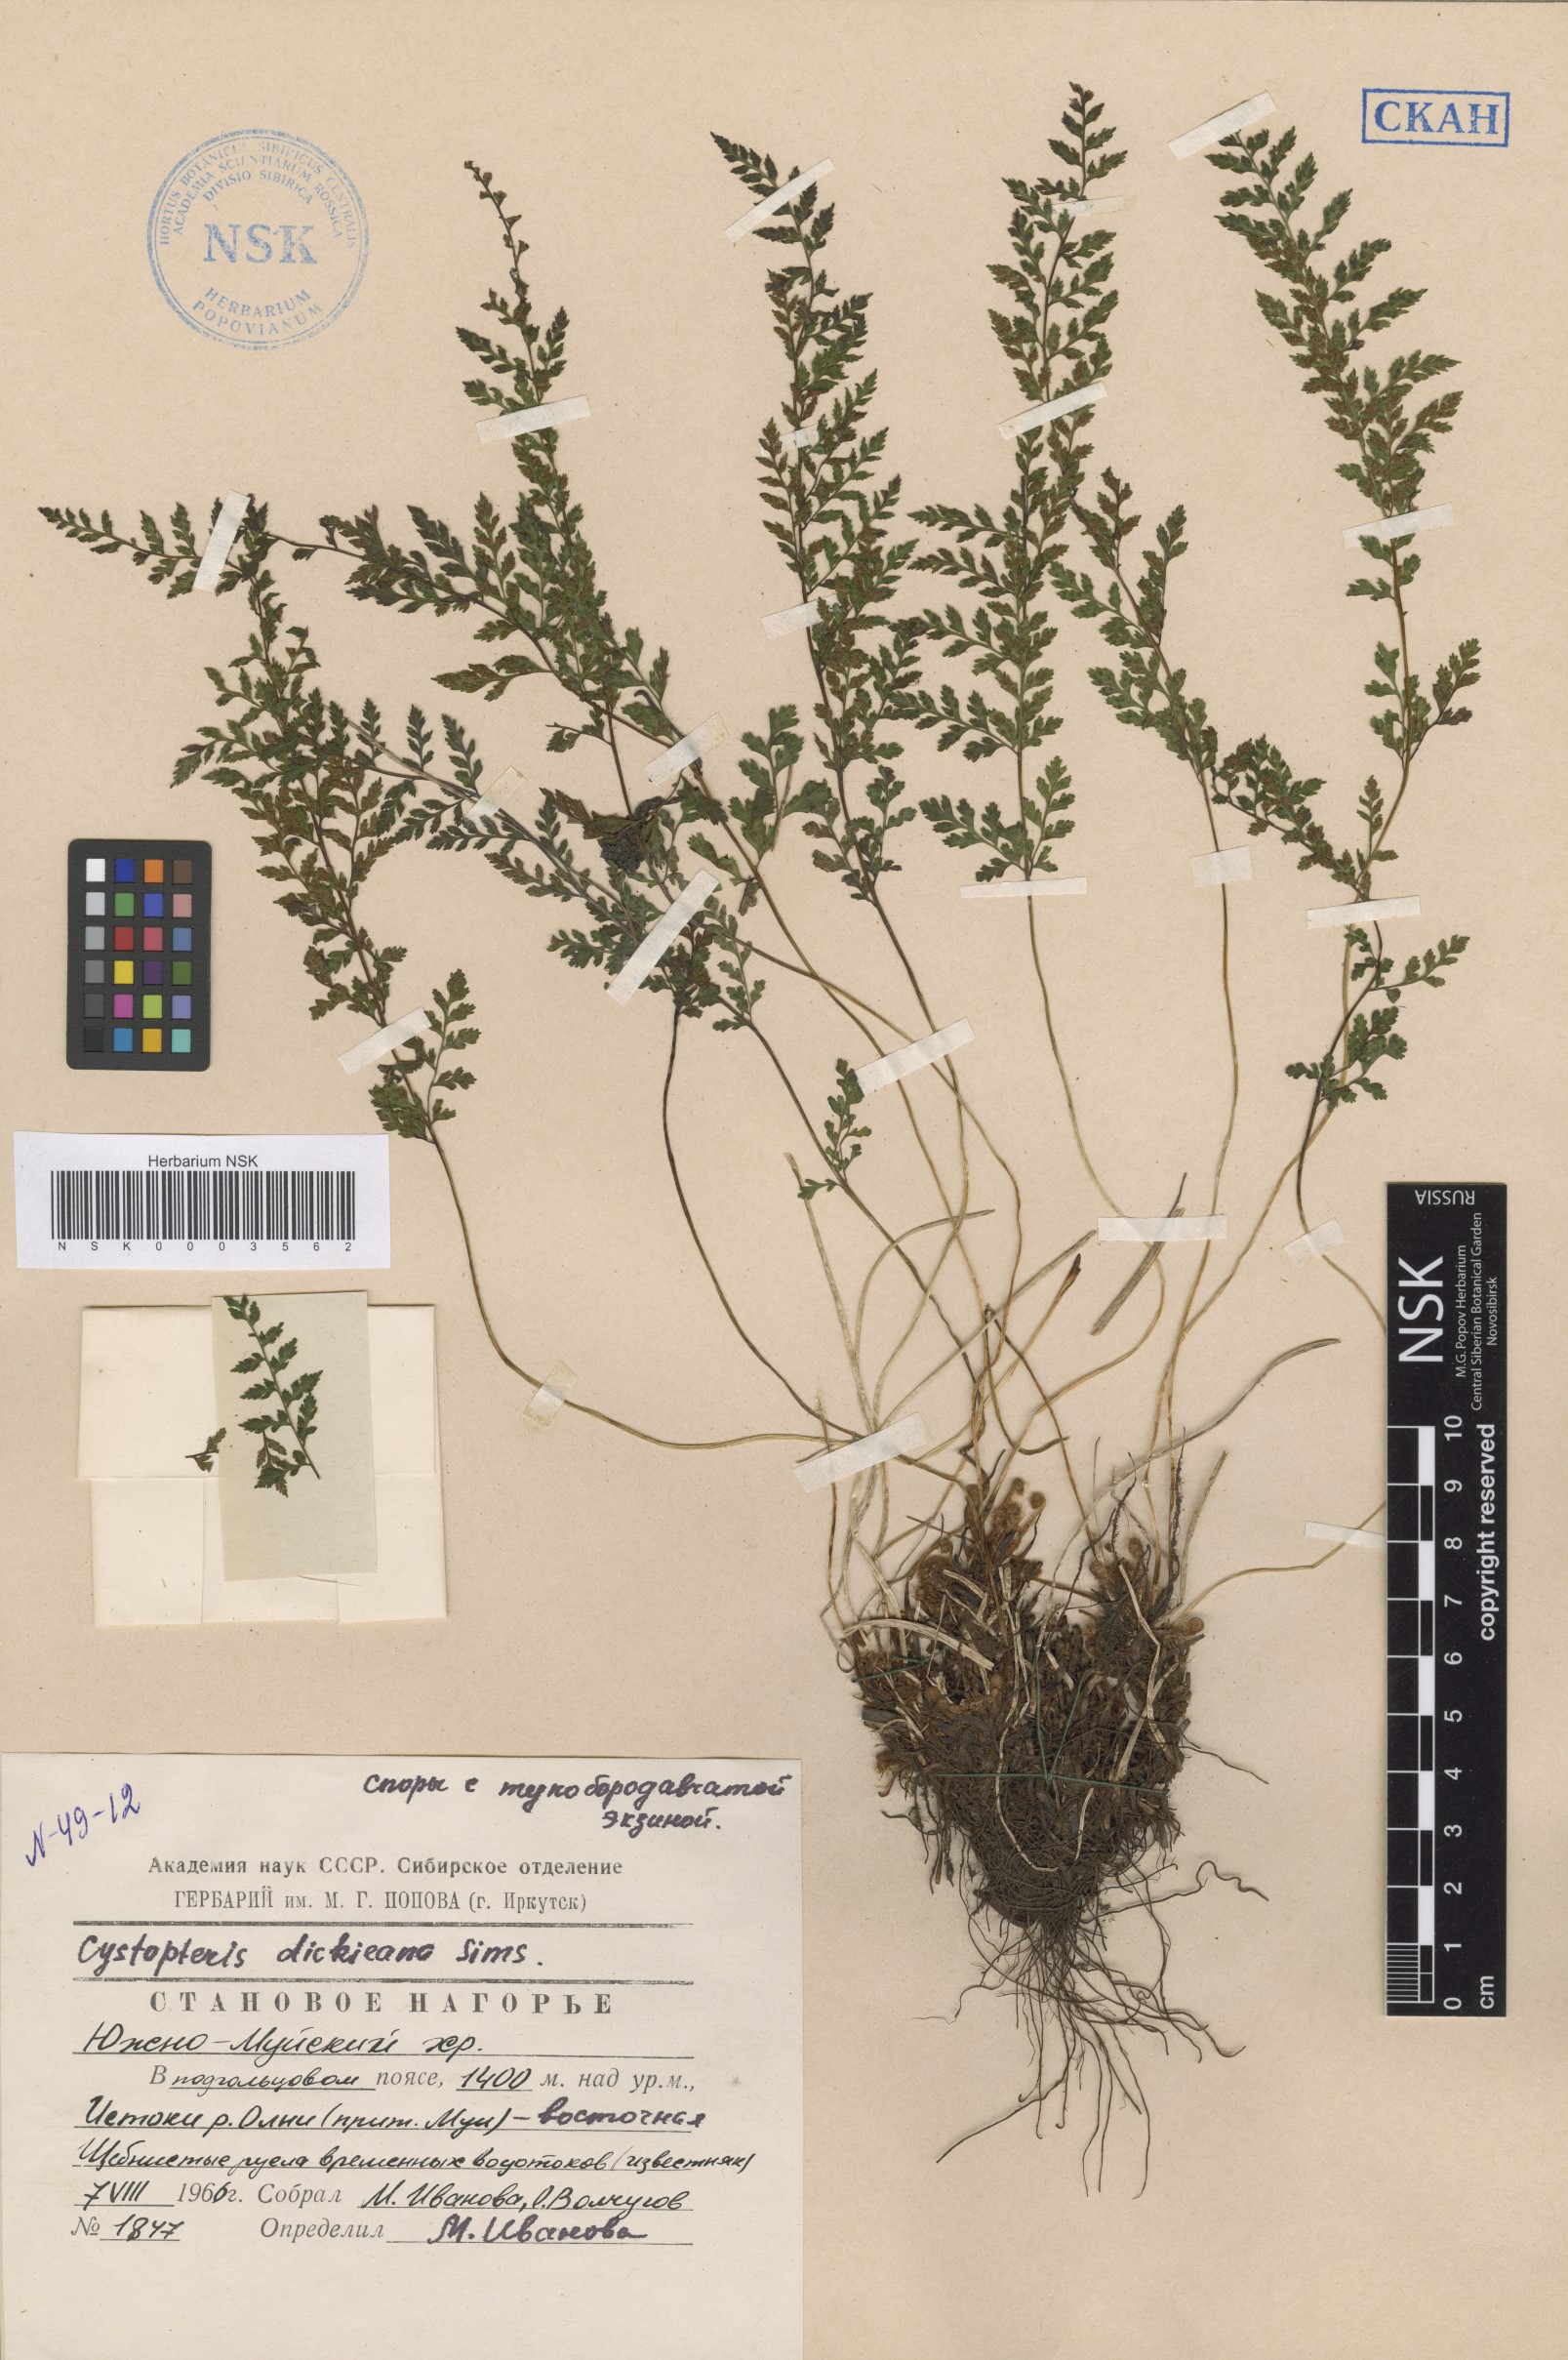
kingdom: Plantae
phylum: Tracheophyta
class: Polypodiopsida
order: Polypodiales
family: Cystopteridaceae
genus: Cystopteris
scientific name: Cystopteris dickieana
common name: Dickie's bladder-fern
